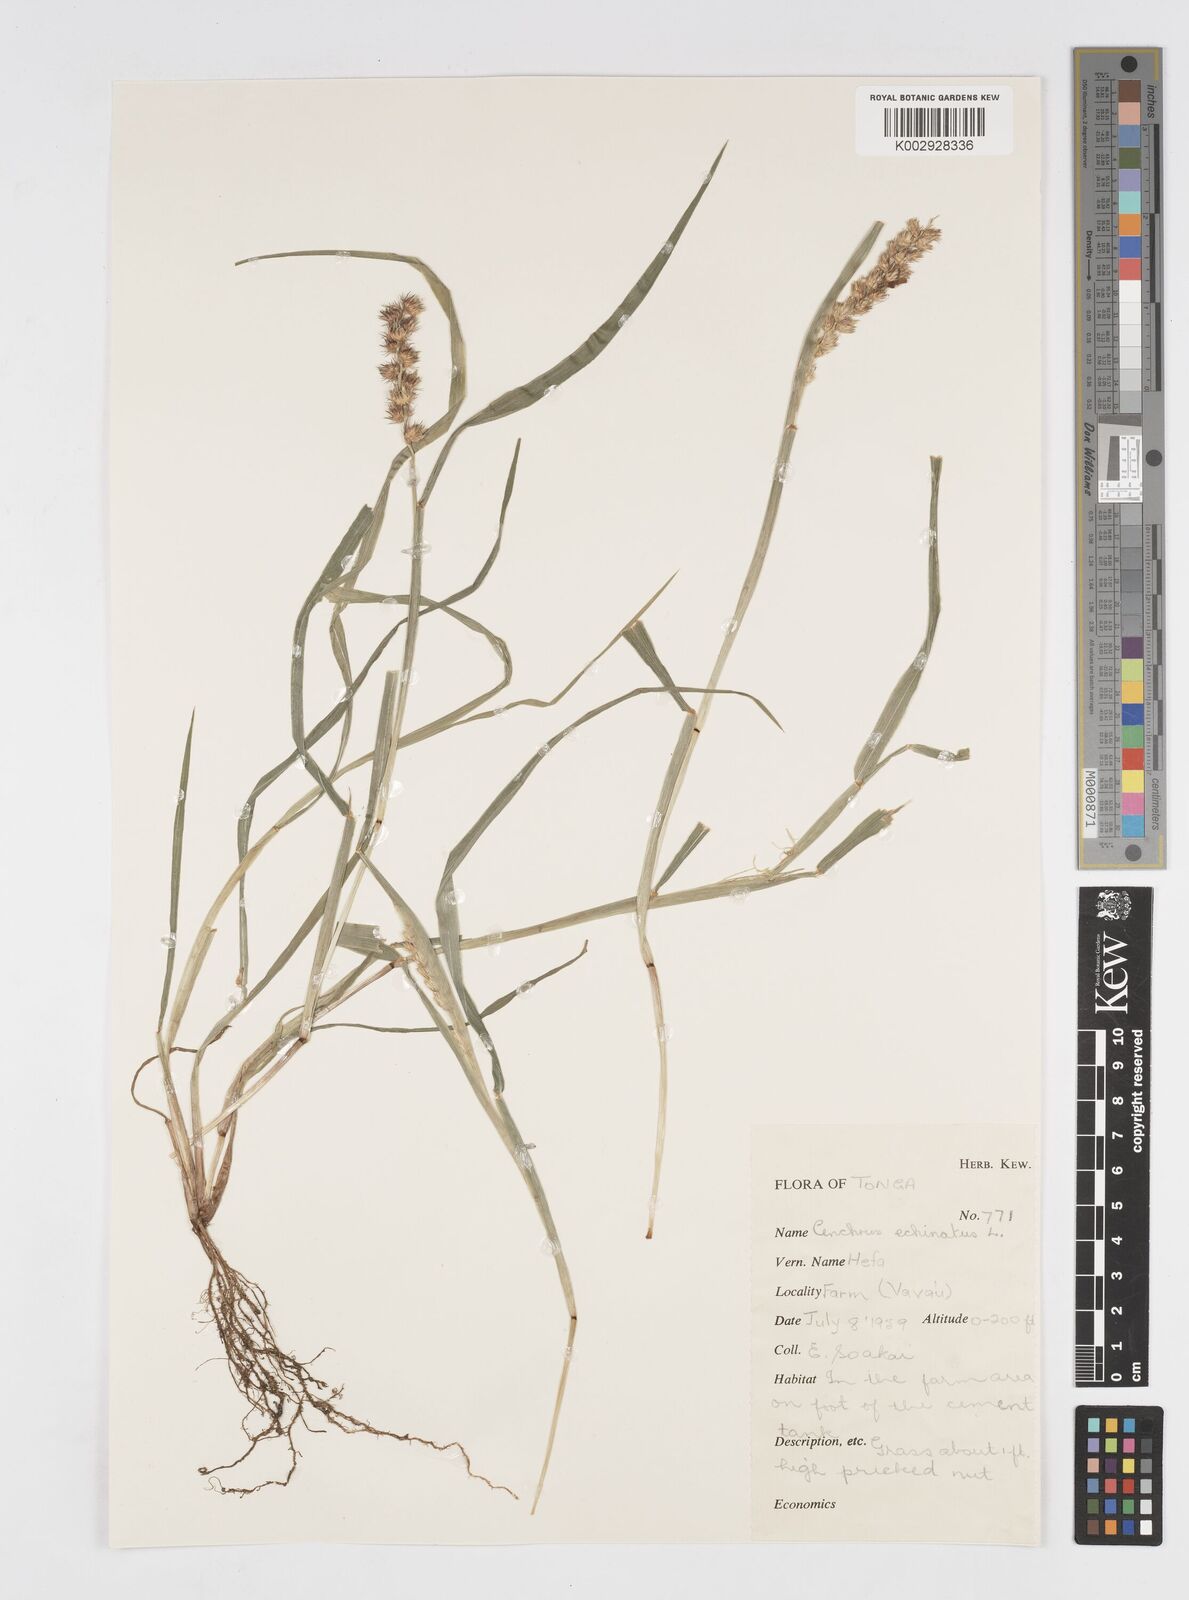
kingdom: Plantae
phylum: Tracheophyta
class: Liliopsida
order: Poales
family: Poaceae
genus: Cenchrus
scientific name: Cenchrus echinatus
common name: Southern sandbur
